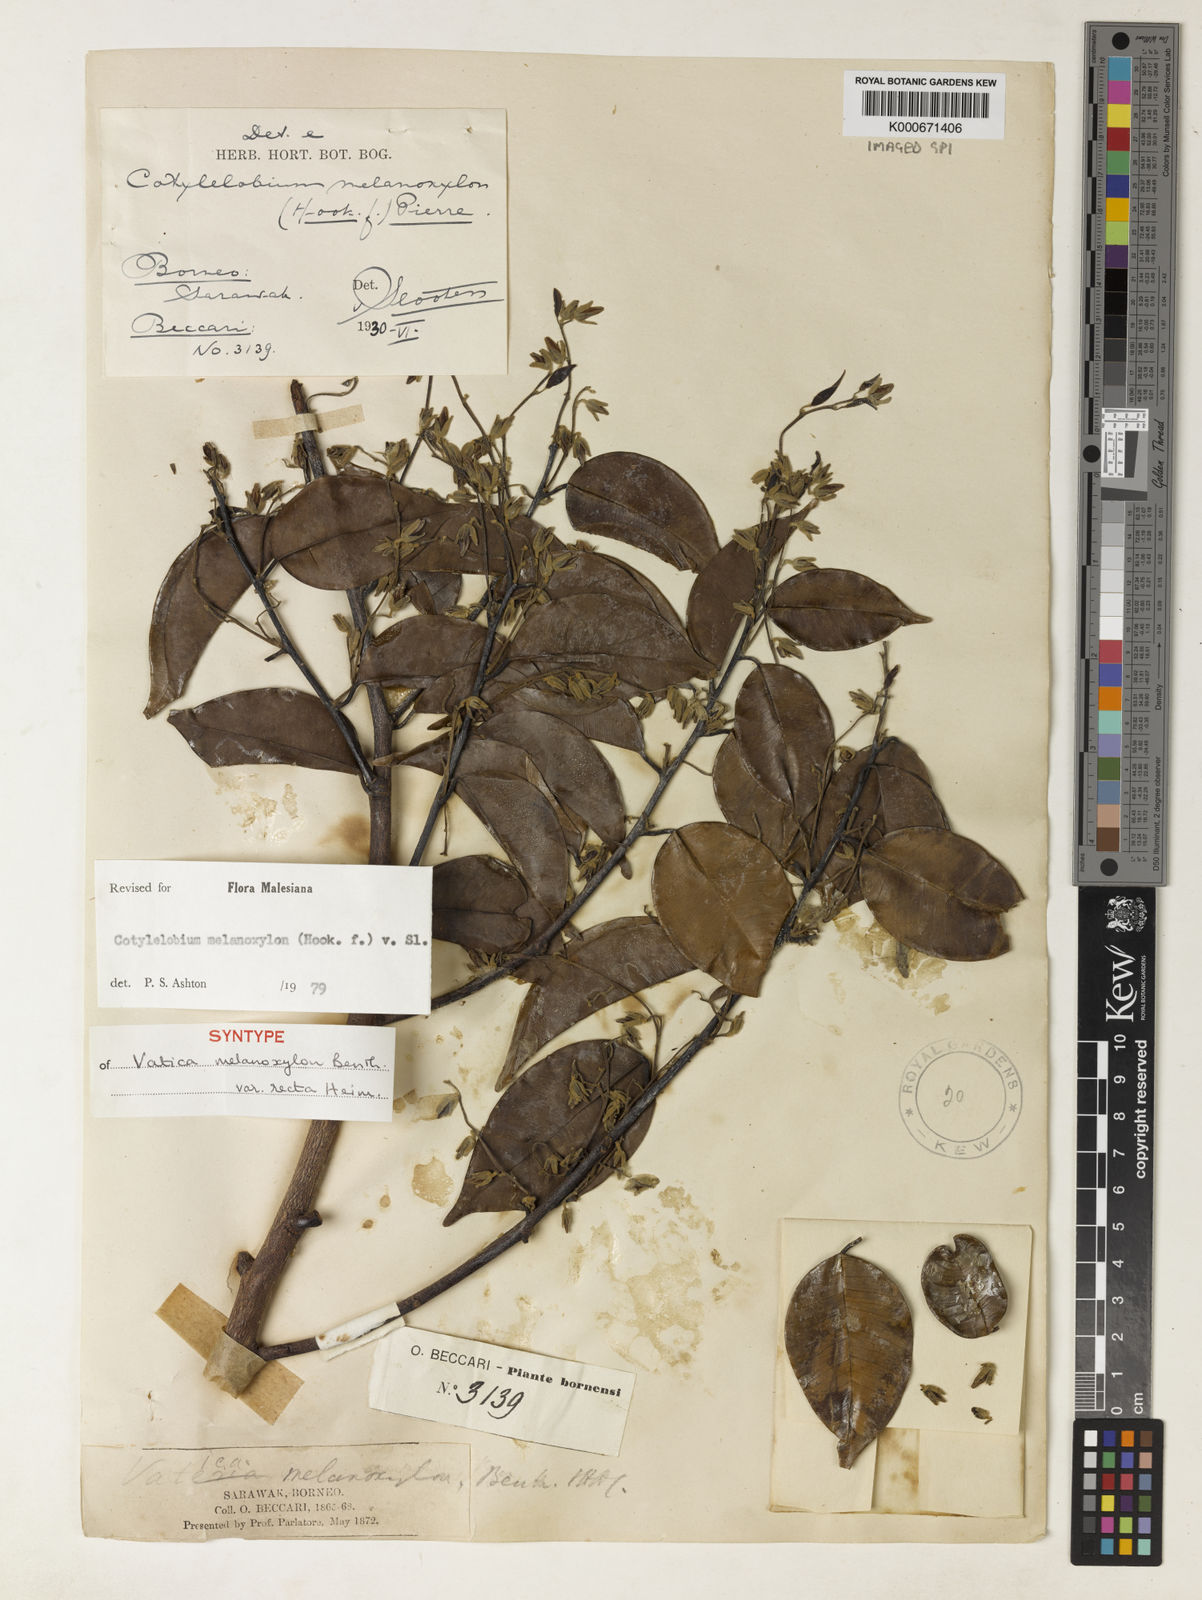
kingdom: Plantae
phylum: Tracheophyta
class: Magnoliopsida
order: Malvales
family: Dipterocarpaceae
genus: Cotylelobium
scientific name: Cotylelobium melanoxylon
